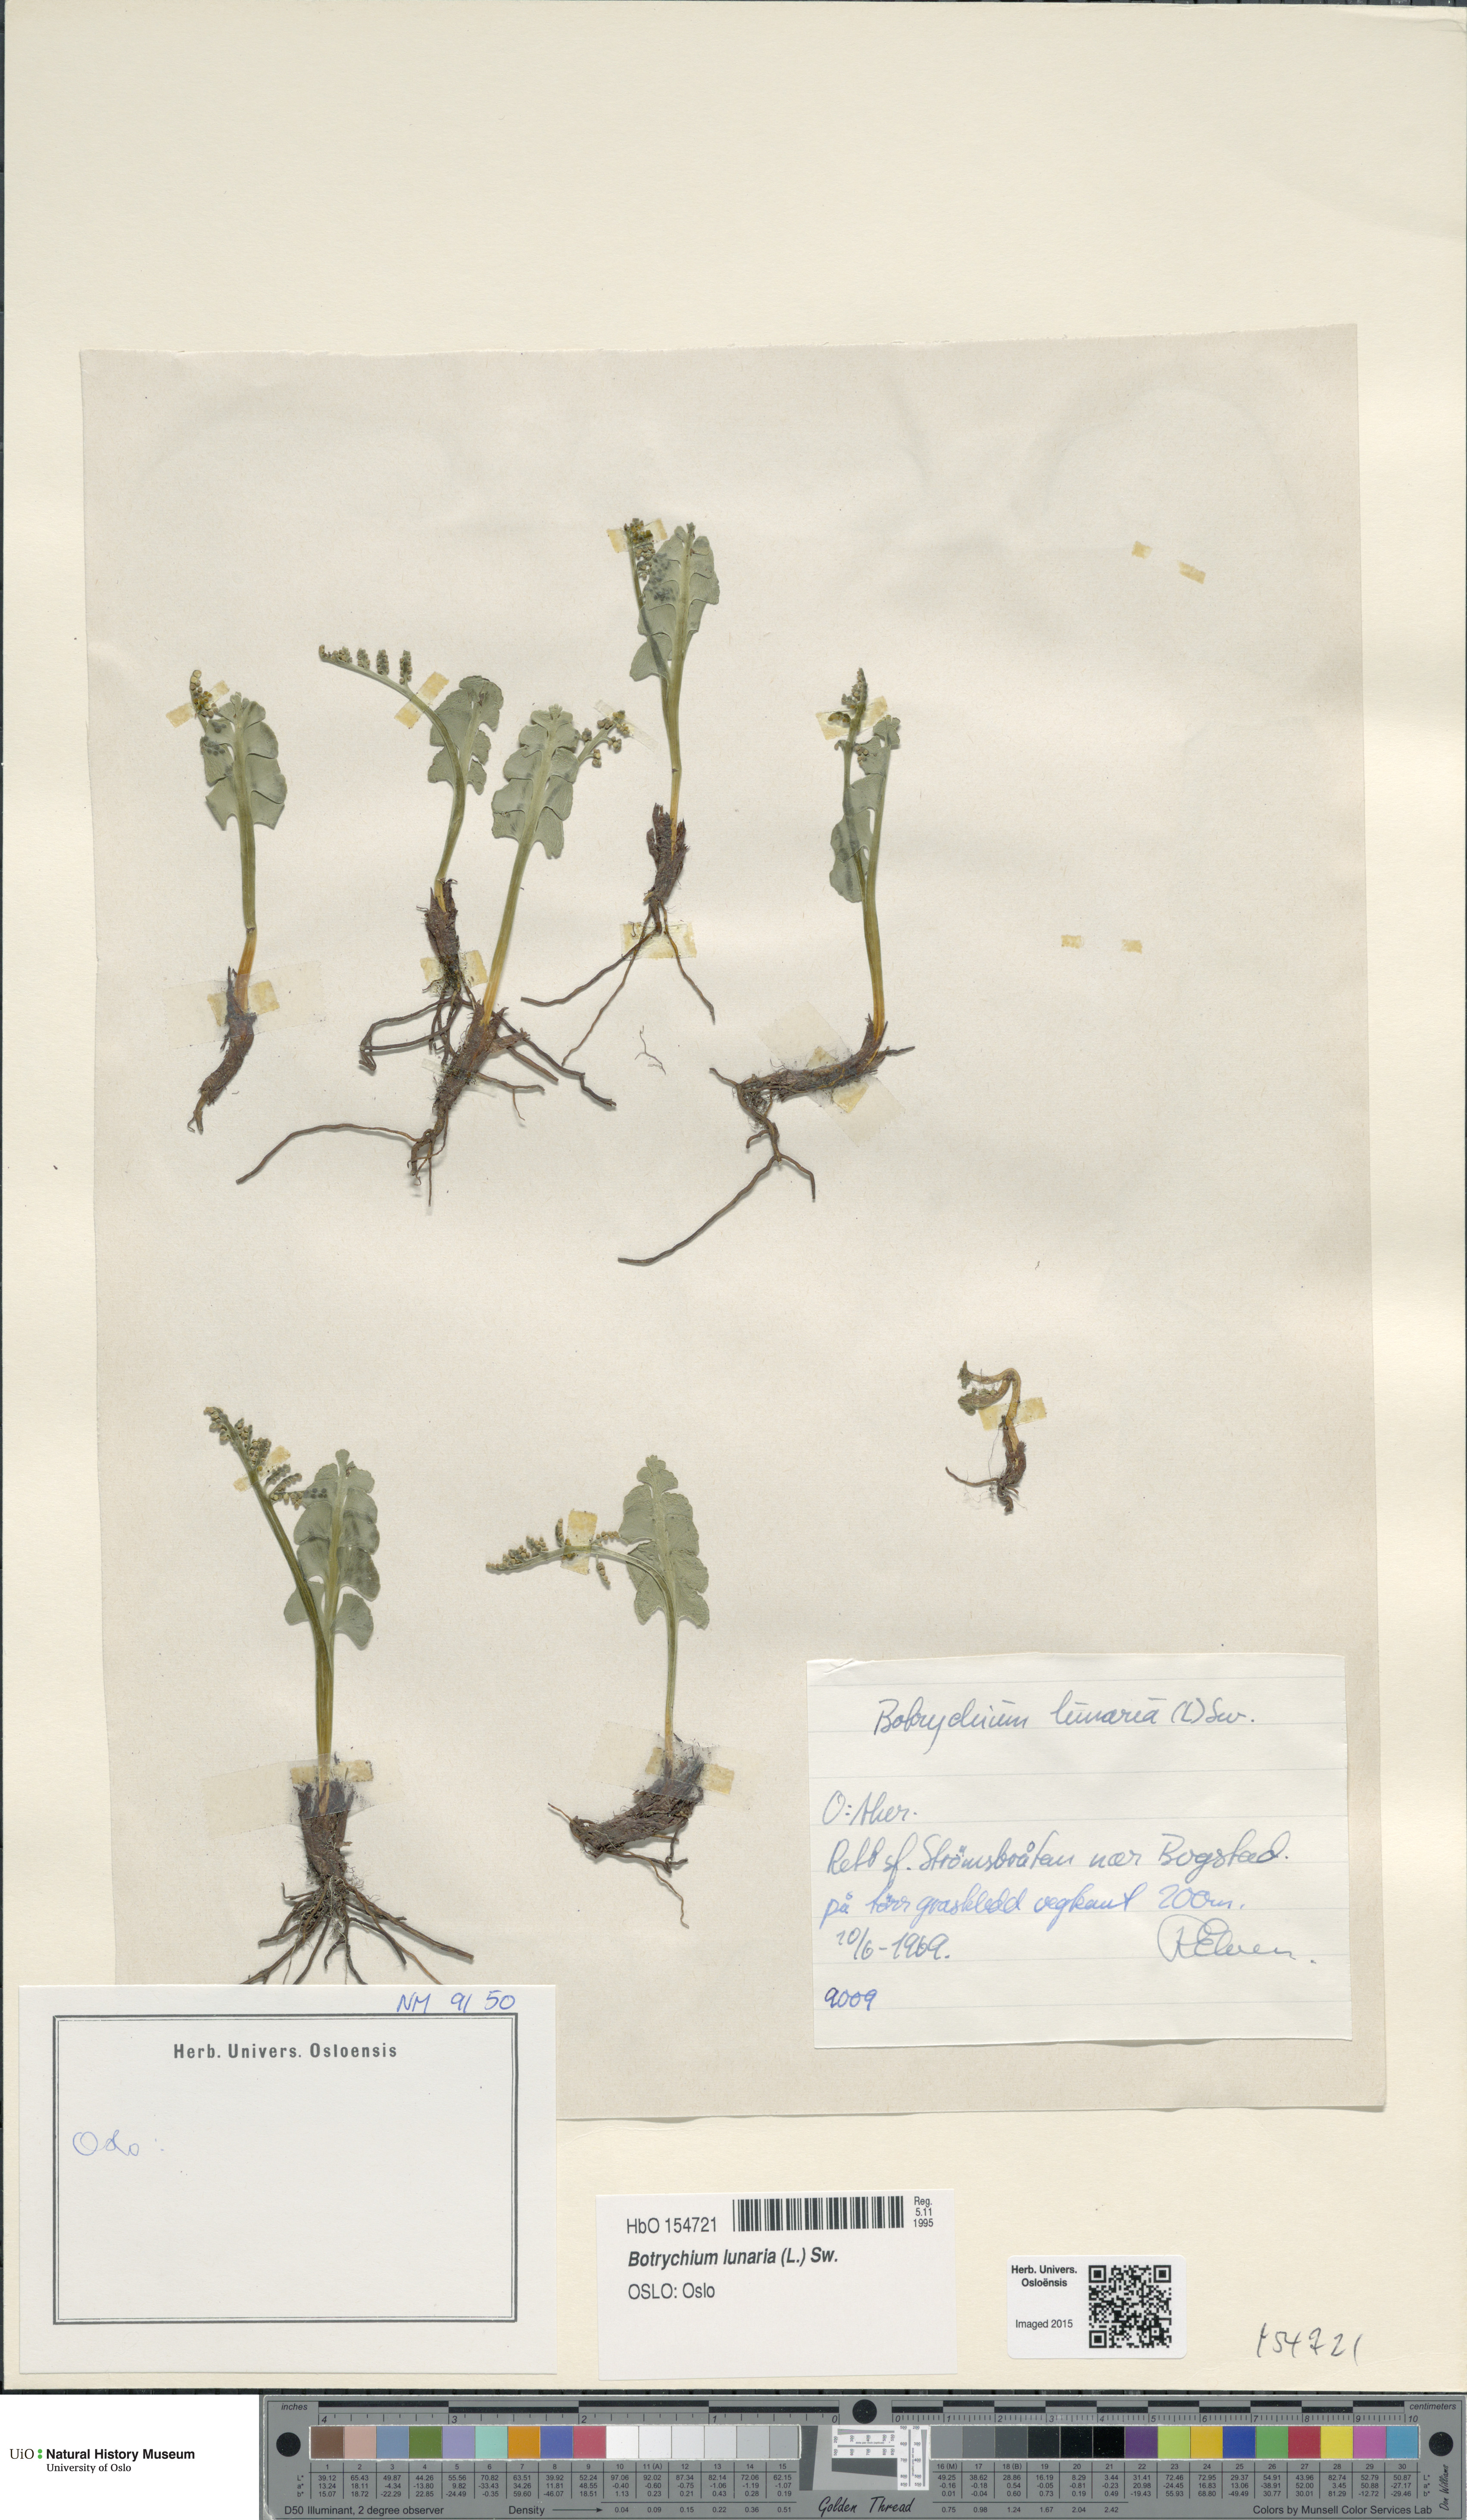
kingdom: Plantae
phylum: Tracheophyta
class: Polypodiopsida
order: Ophioglossales
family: Ophioglossaceae
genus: Botrychium
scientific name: Botrychium lunaria
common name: Moonwort
